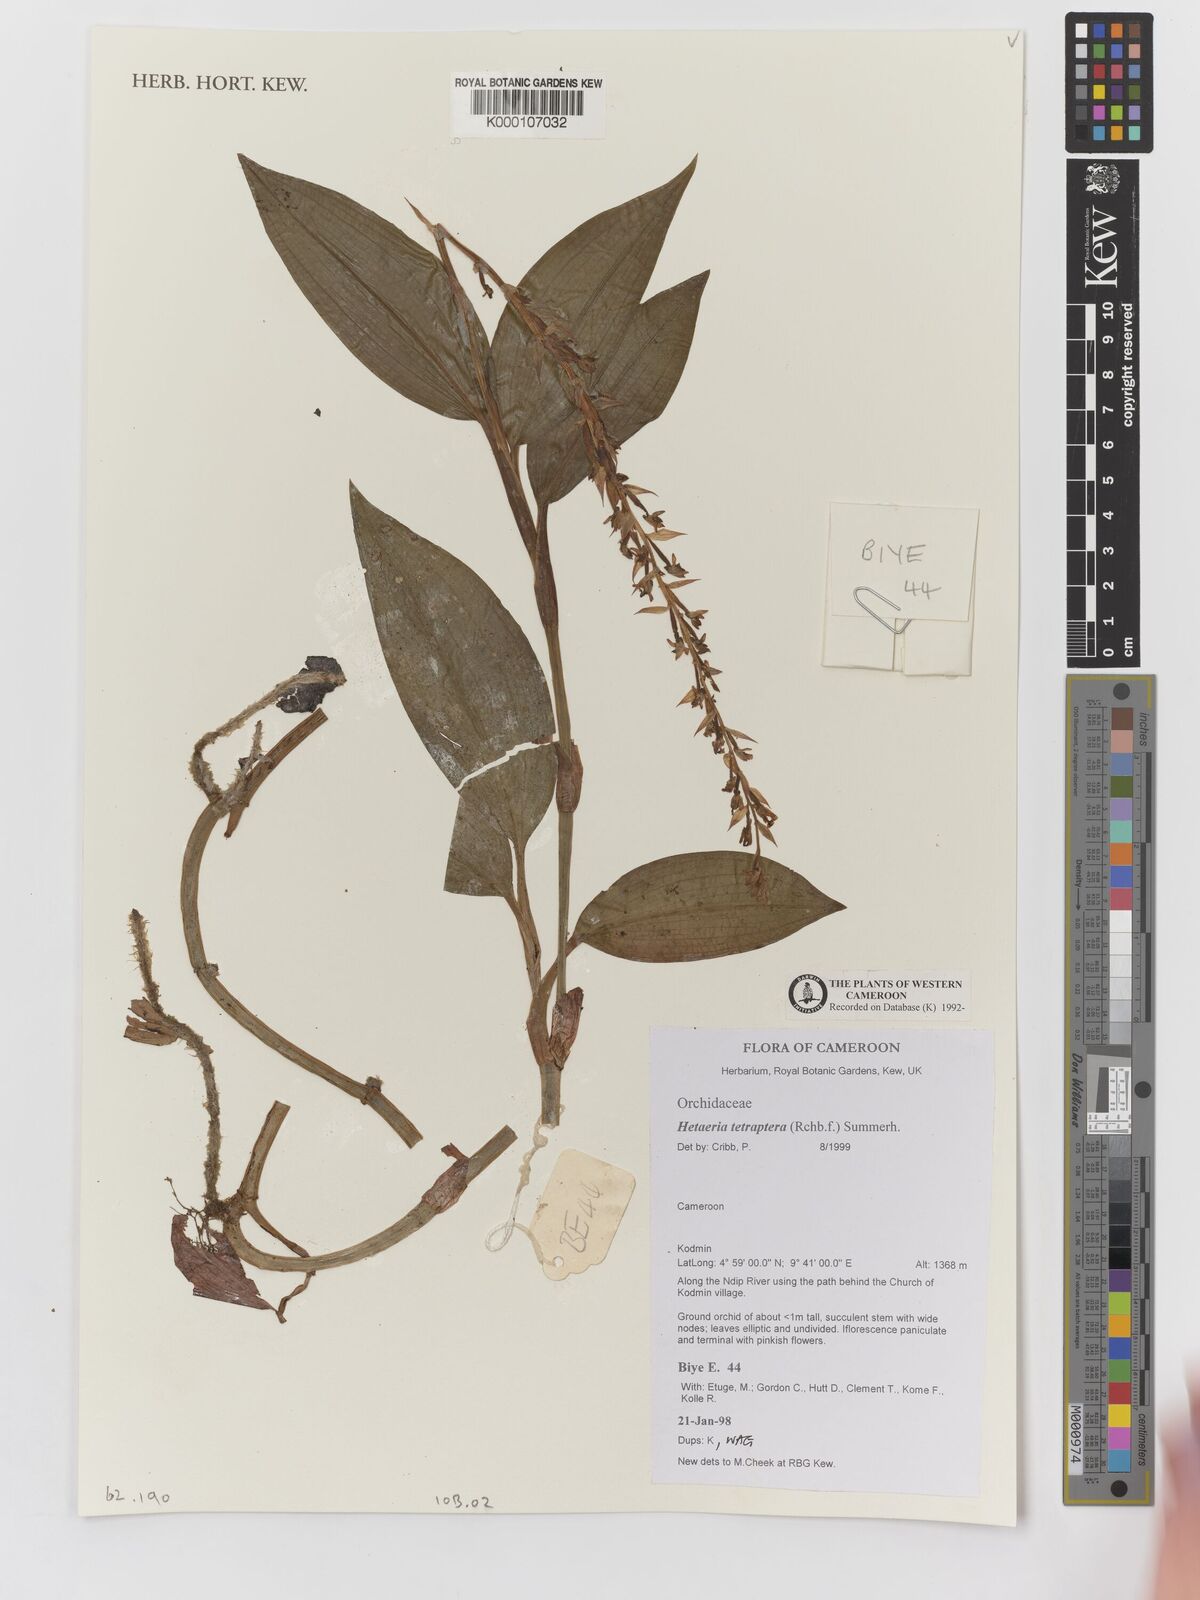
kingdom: Plantae
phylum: Tracheophyta
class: Liliopsida
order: Asparagales
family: Orchidaceae
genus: Hetaeria
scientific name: Hetaeria tetraptera
